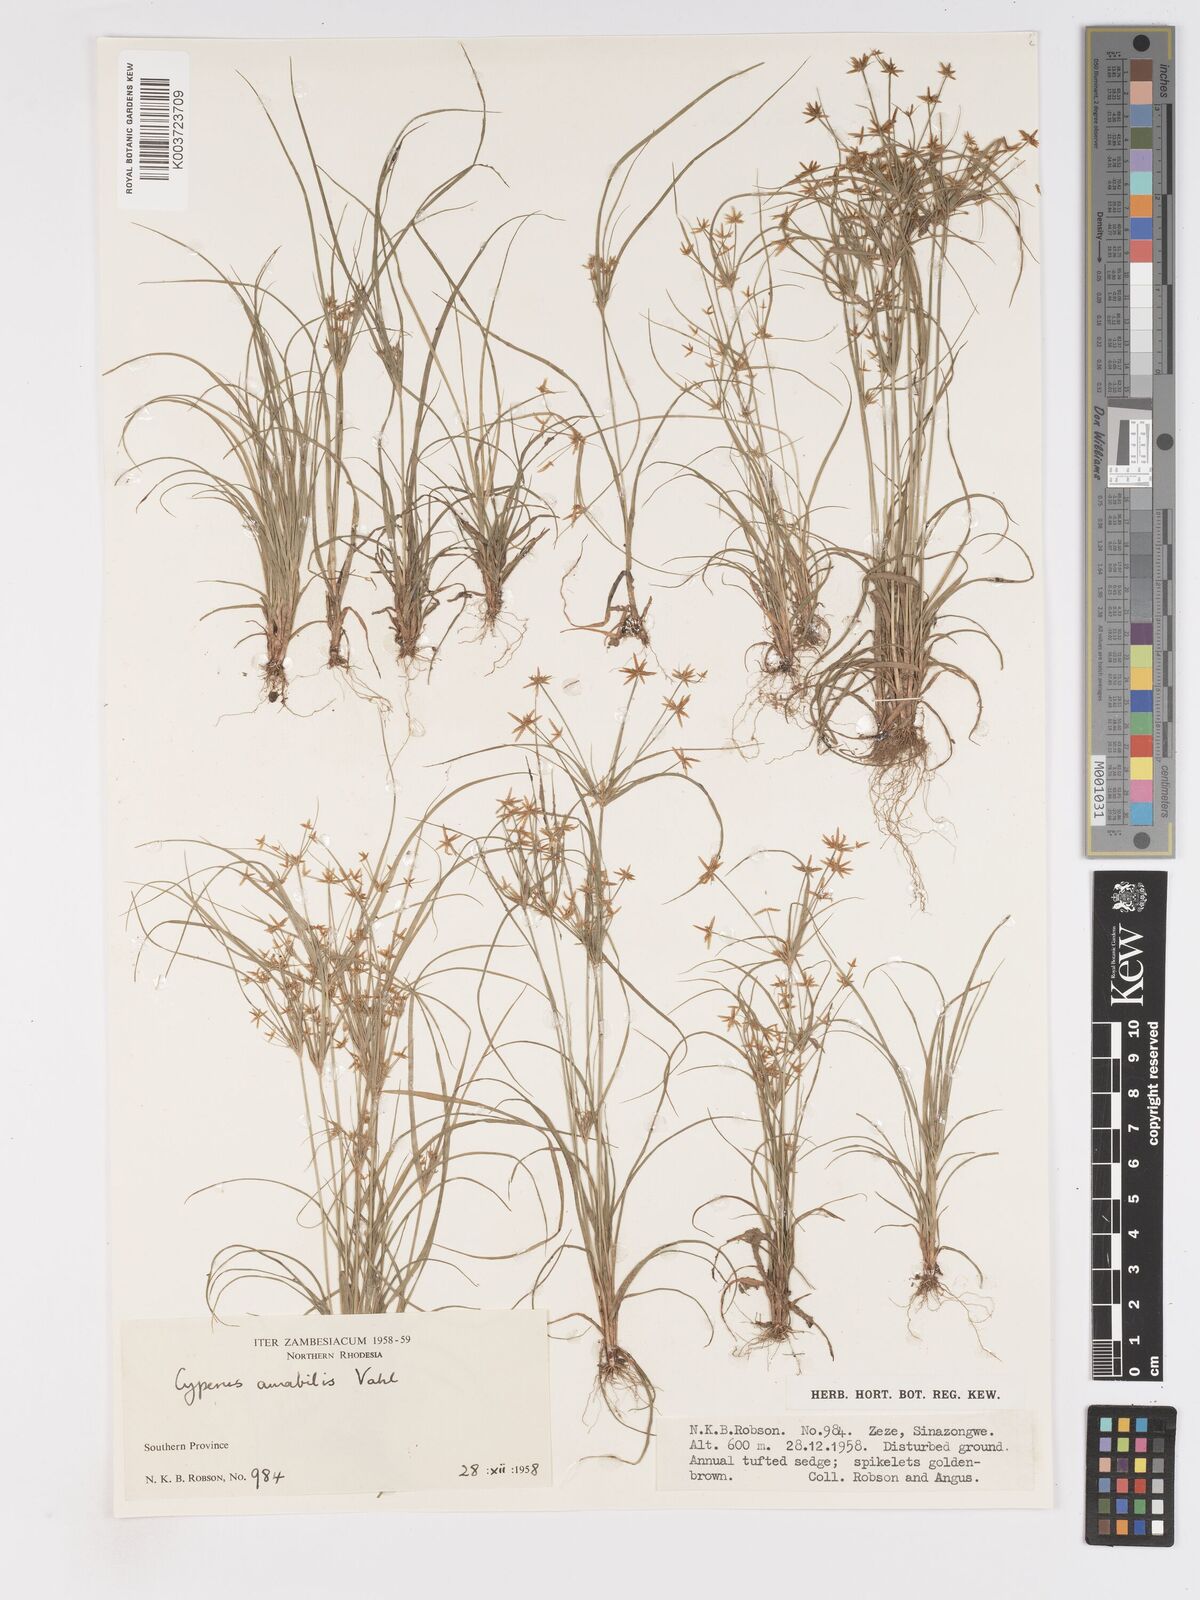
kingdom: Plantae
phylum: Tracheophyta
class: Liliopsida
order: Poales
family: Cyperaceae
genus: Cyperus
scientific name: Cyperus amabilis
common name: Foothill flat sedge
